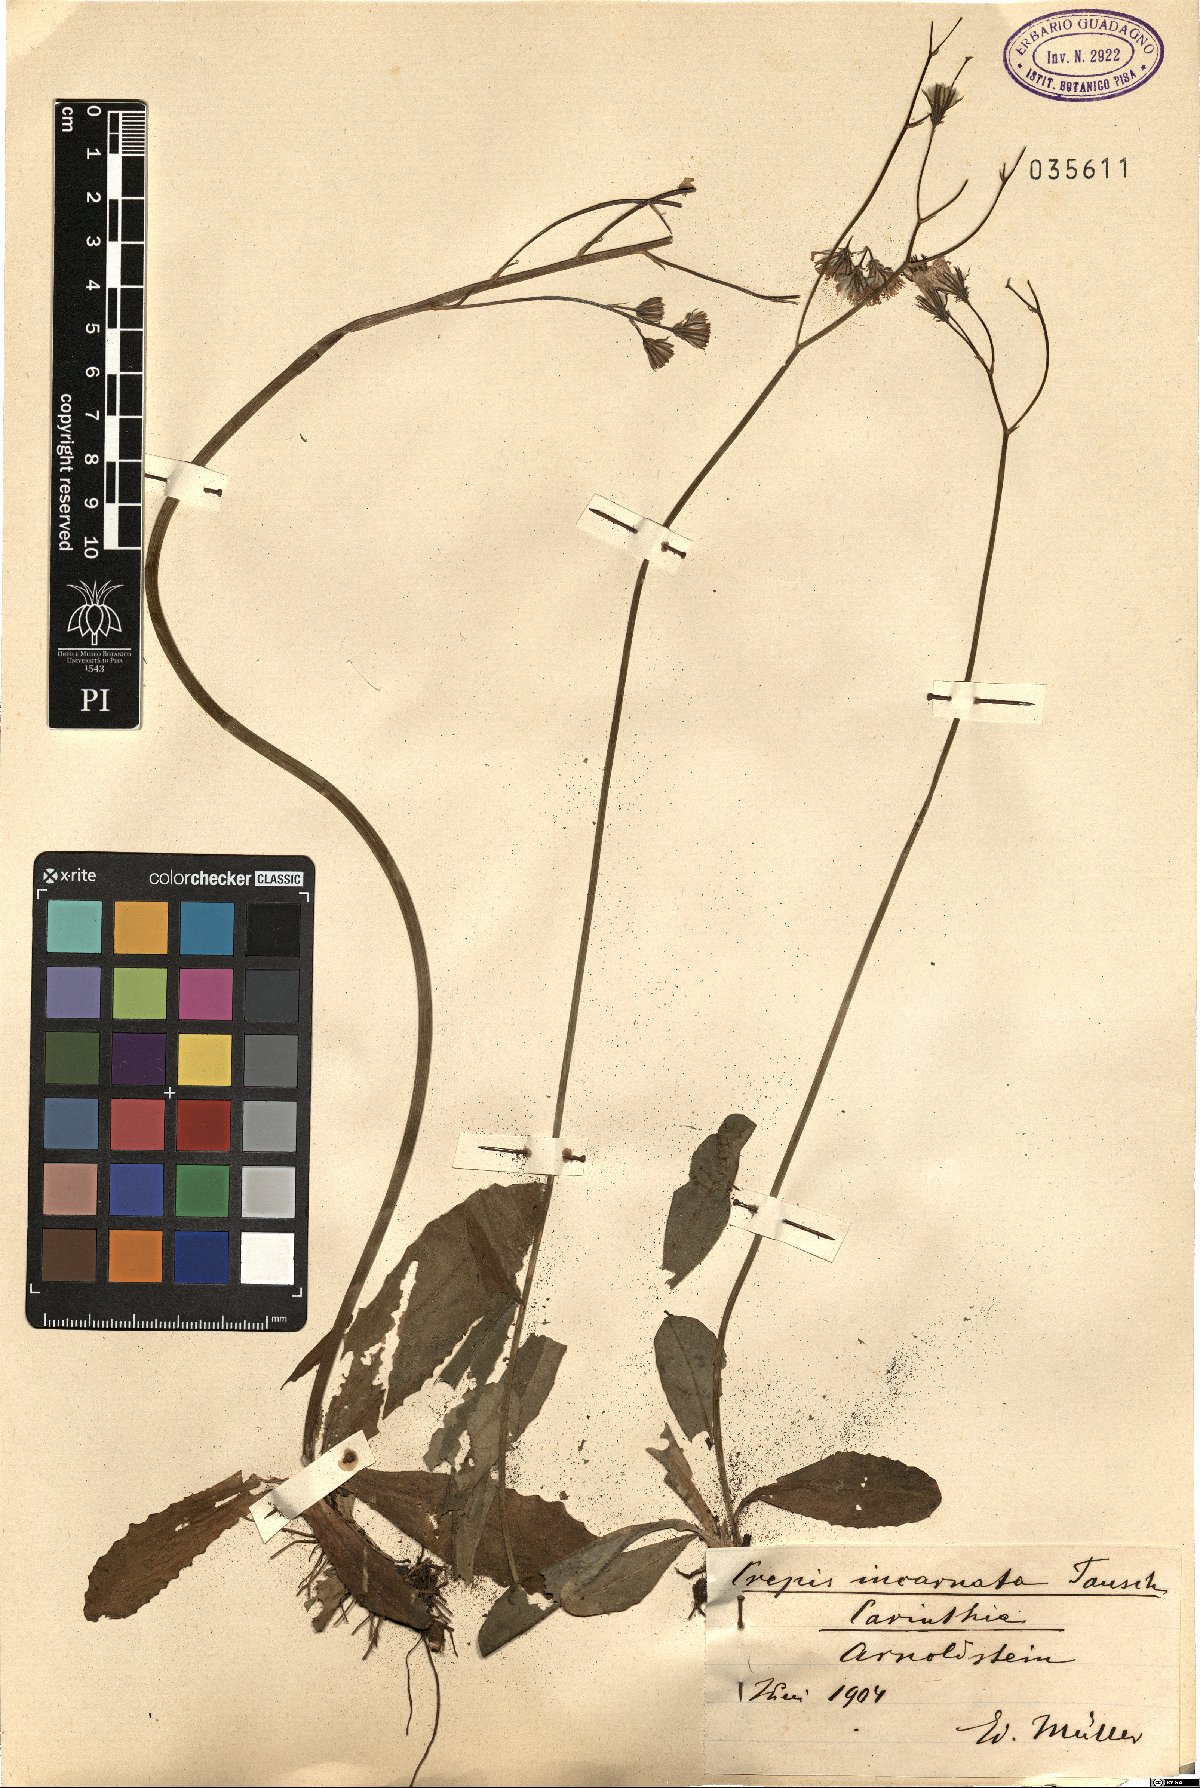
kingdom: Plantae
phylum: Tracheophyta
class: Magnoliopsida
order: Asterales
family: Asteraceae
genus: Crepis
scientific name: Crepis froelichiana
